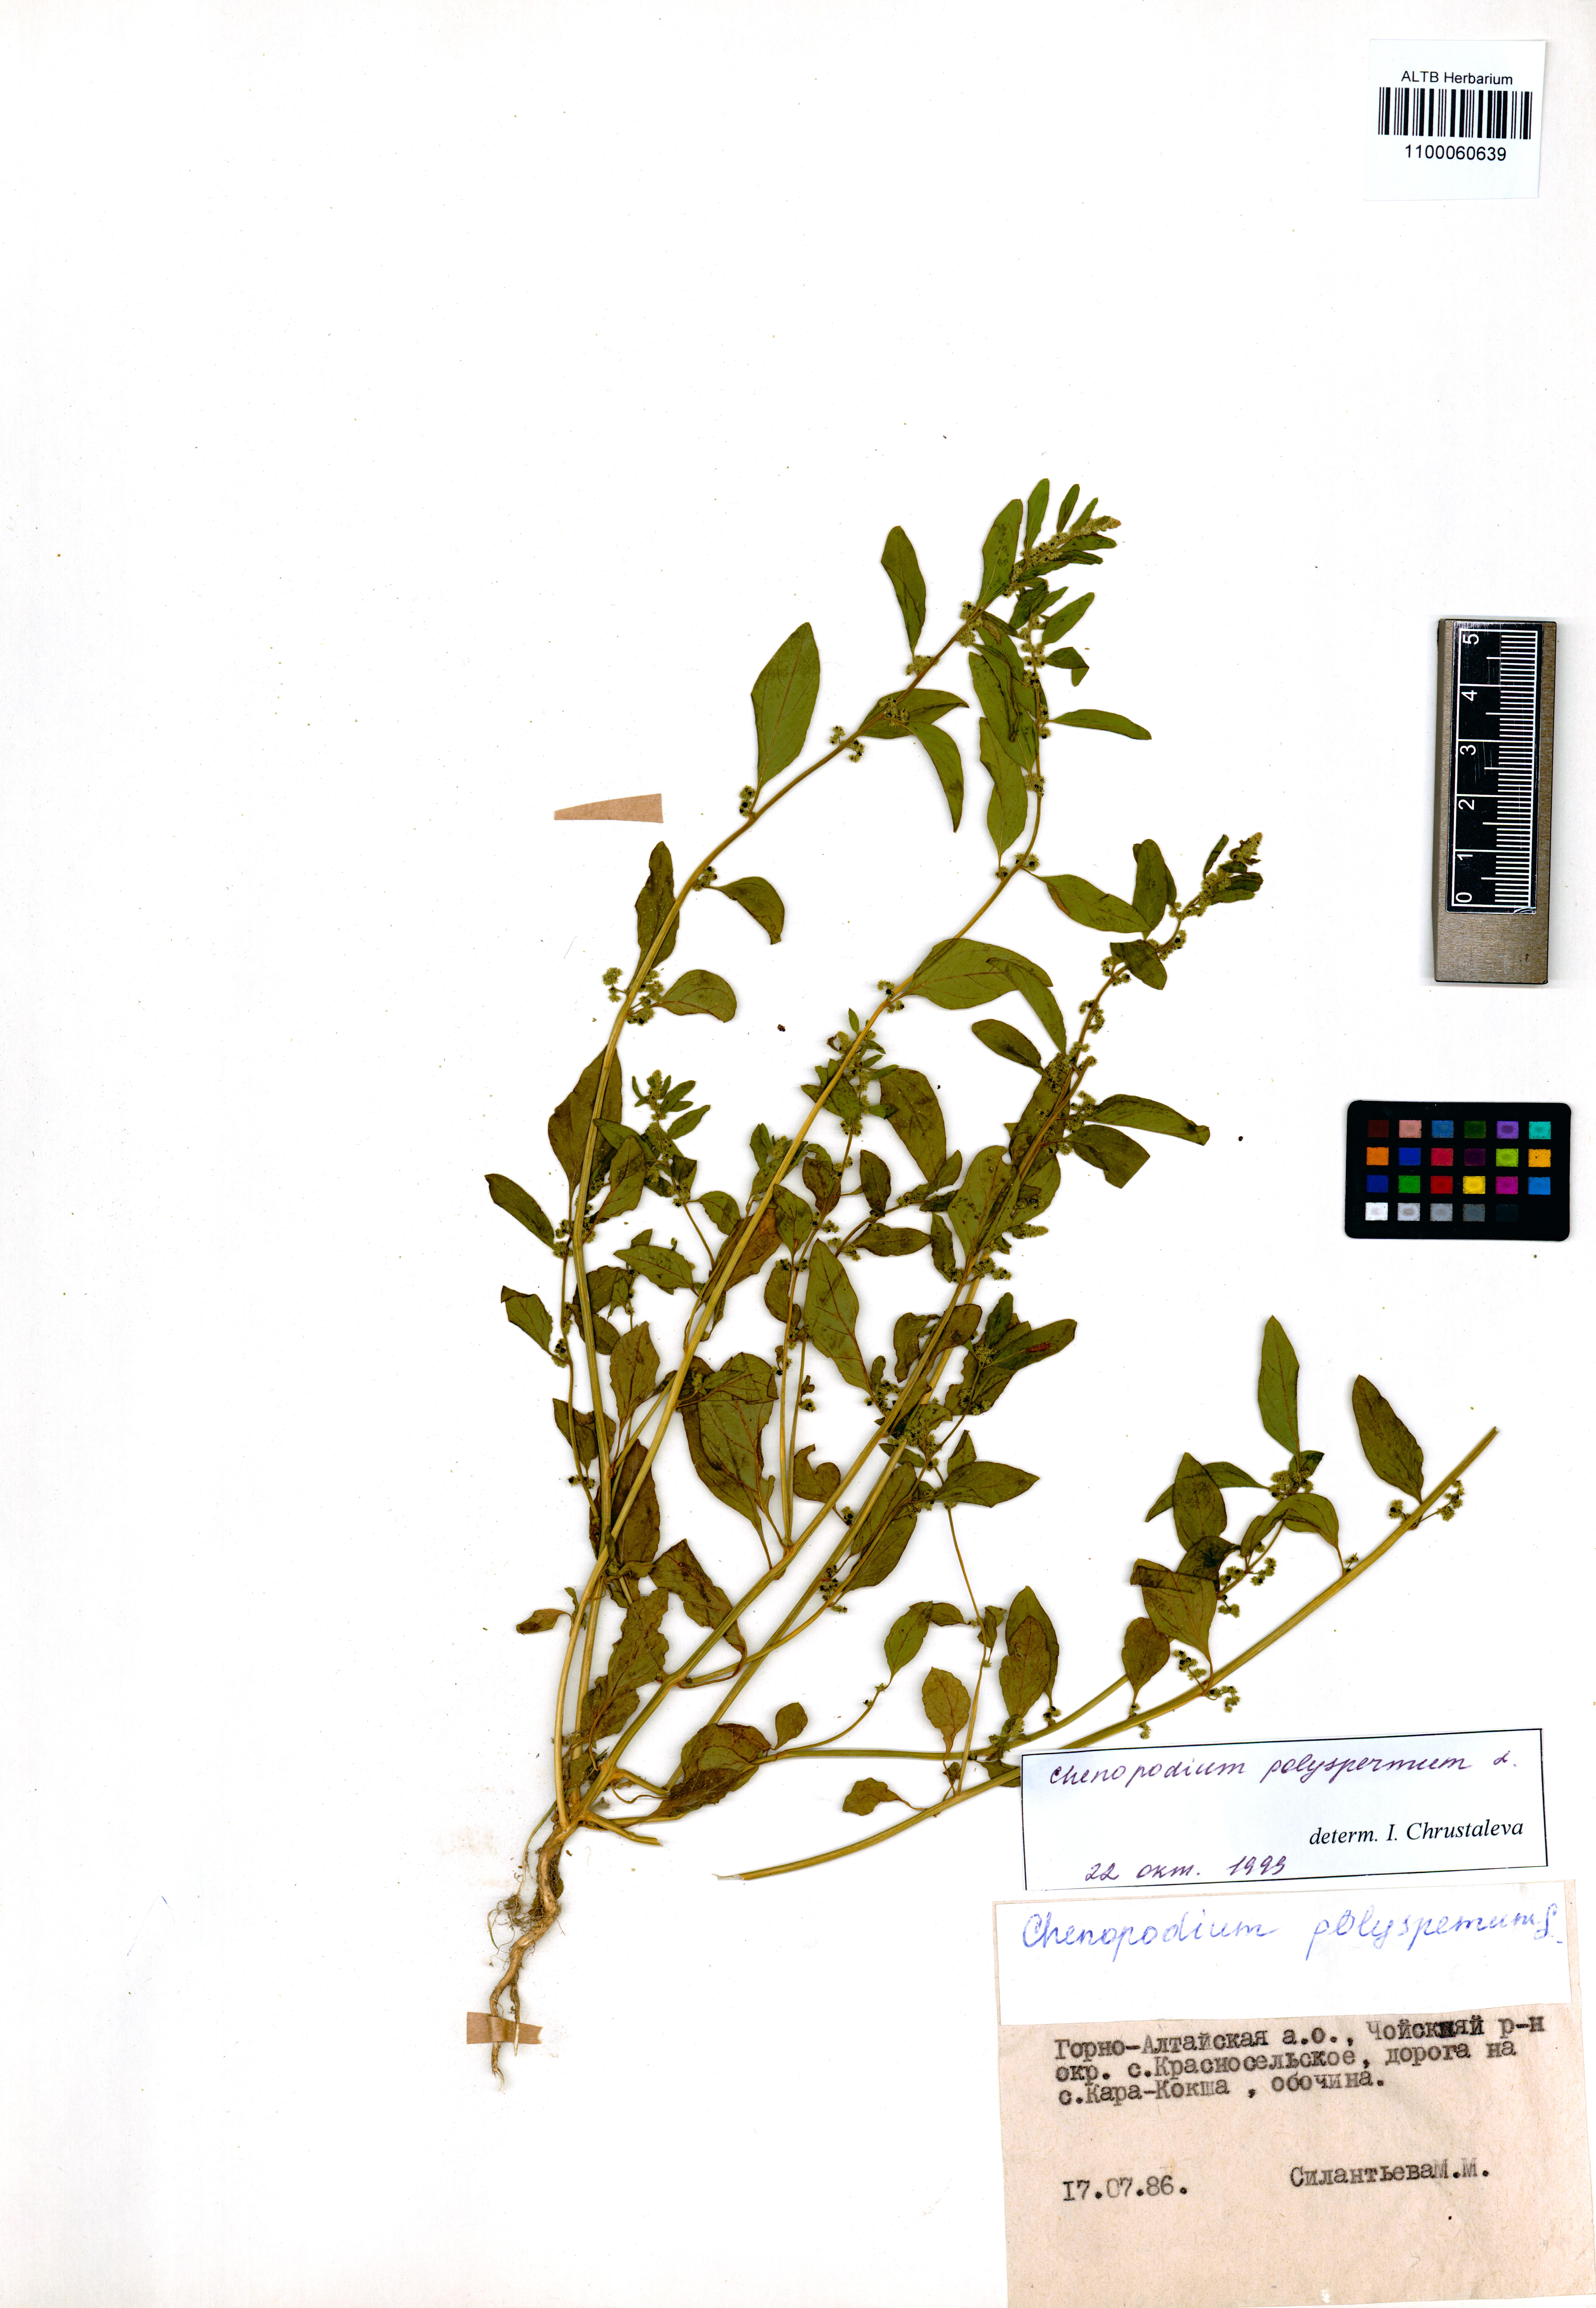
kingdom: Plantae
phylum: Tracheophyta
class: Magnoliopsida
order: Caryophyllales
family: Amaranthaceae
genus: Lipandra
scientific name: Lipandra polysperma
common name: Many-seed goosefoot
